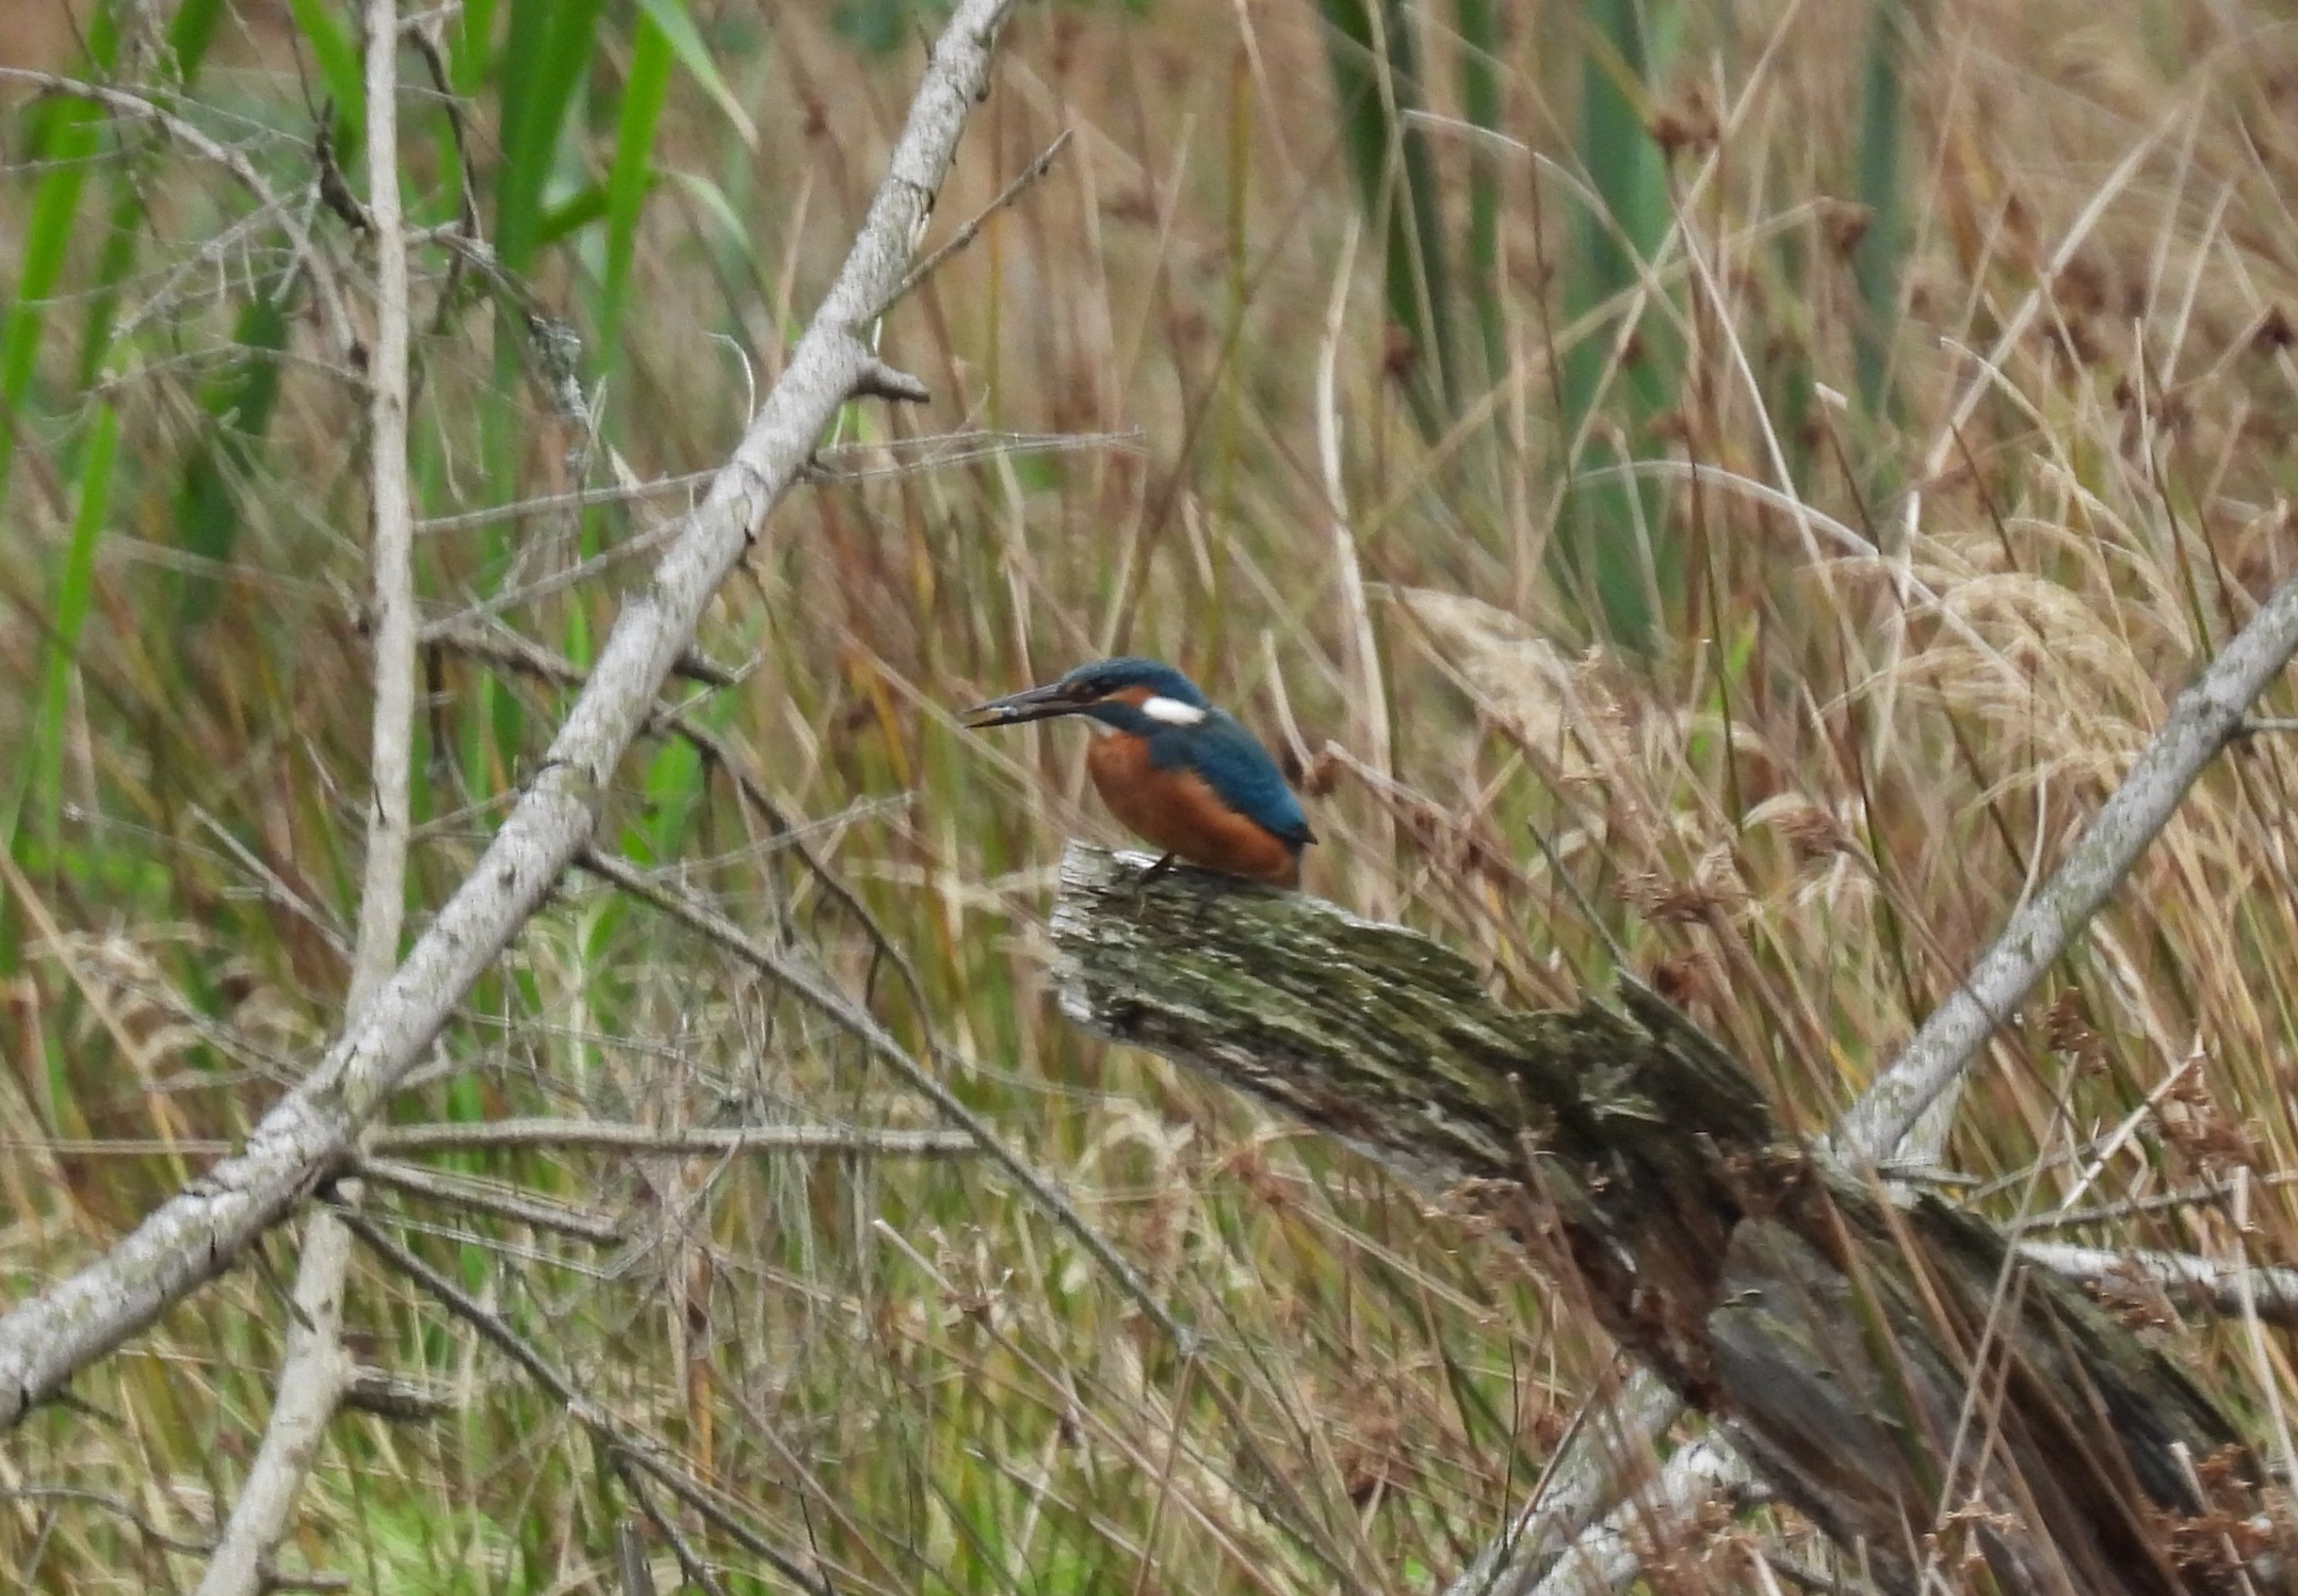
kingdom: Animalia
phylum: Chordata
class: Aves
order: Coraciiformes
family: Alcedinidae
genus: Alcedo
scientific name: Alcedo atthis
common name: Isfugl
